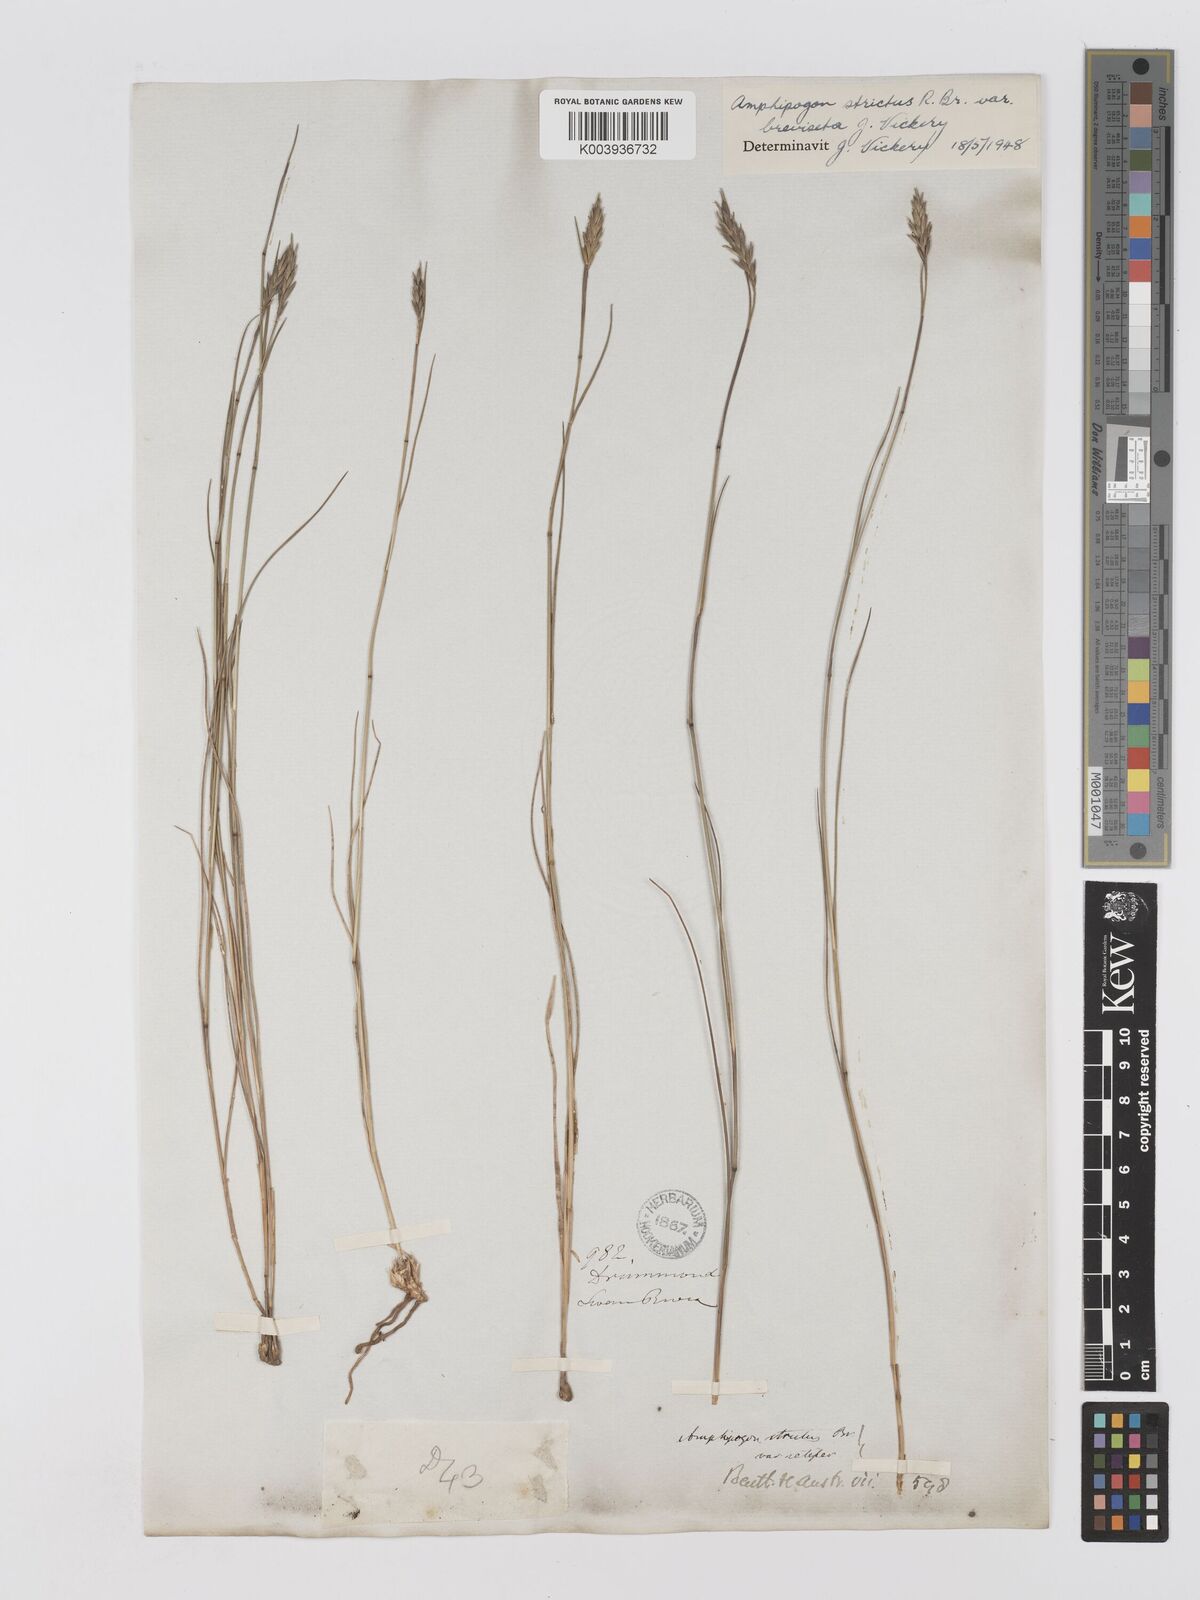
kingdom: Plantae
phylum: Tracheophyta
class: Liliopsida
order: Poales
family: Poaceae
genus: Amphipogon
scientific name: Amphipogon strictus
